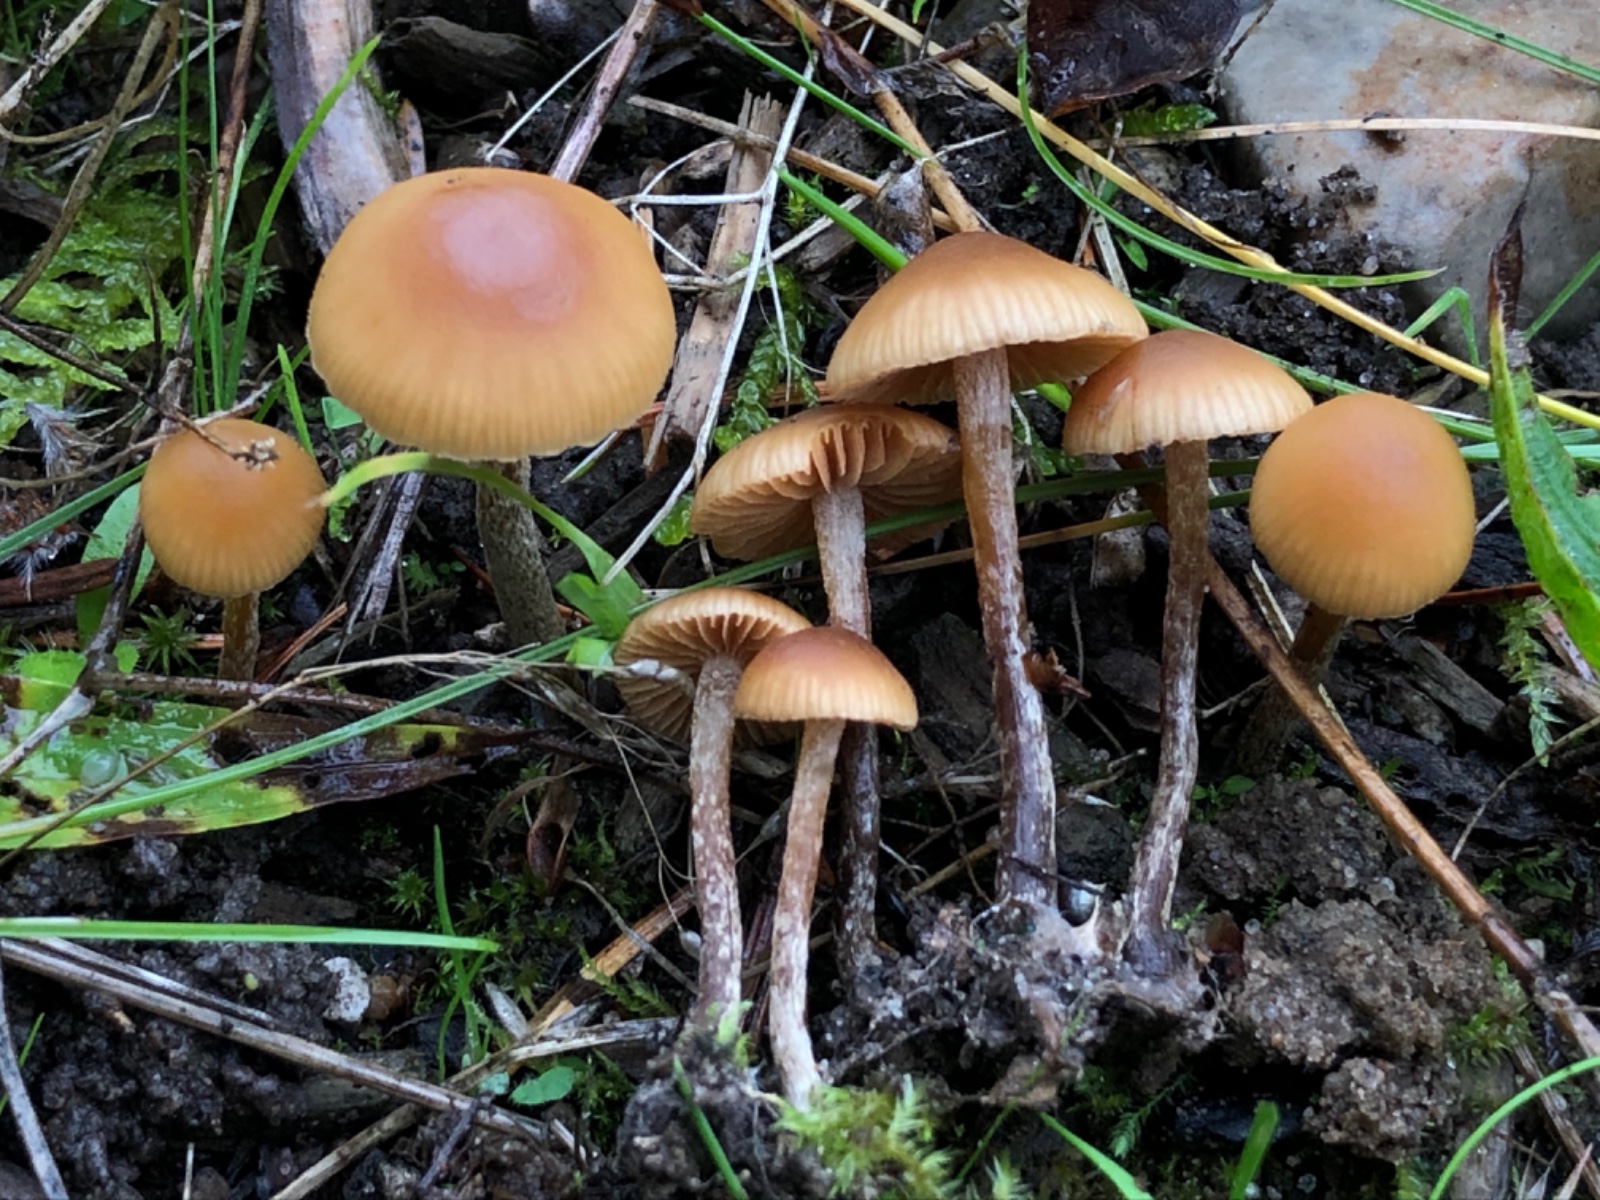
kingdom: Fungi
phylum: Basidiomycota
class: Agaricomycetes
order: Agaricales
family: Hymenogastraceae
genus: Galerina
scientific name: Galerina badipes
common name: brunstokket hjelmhat
